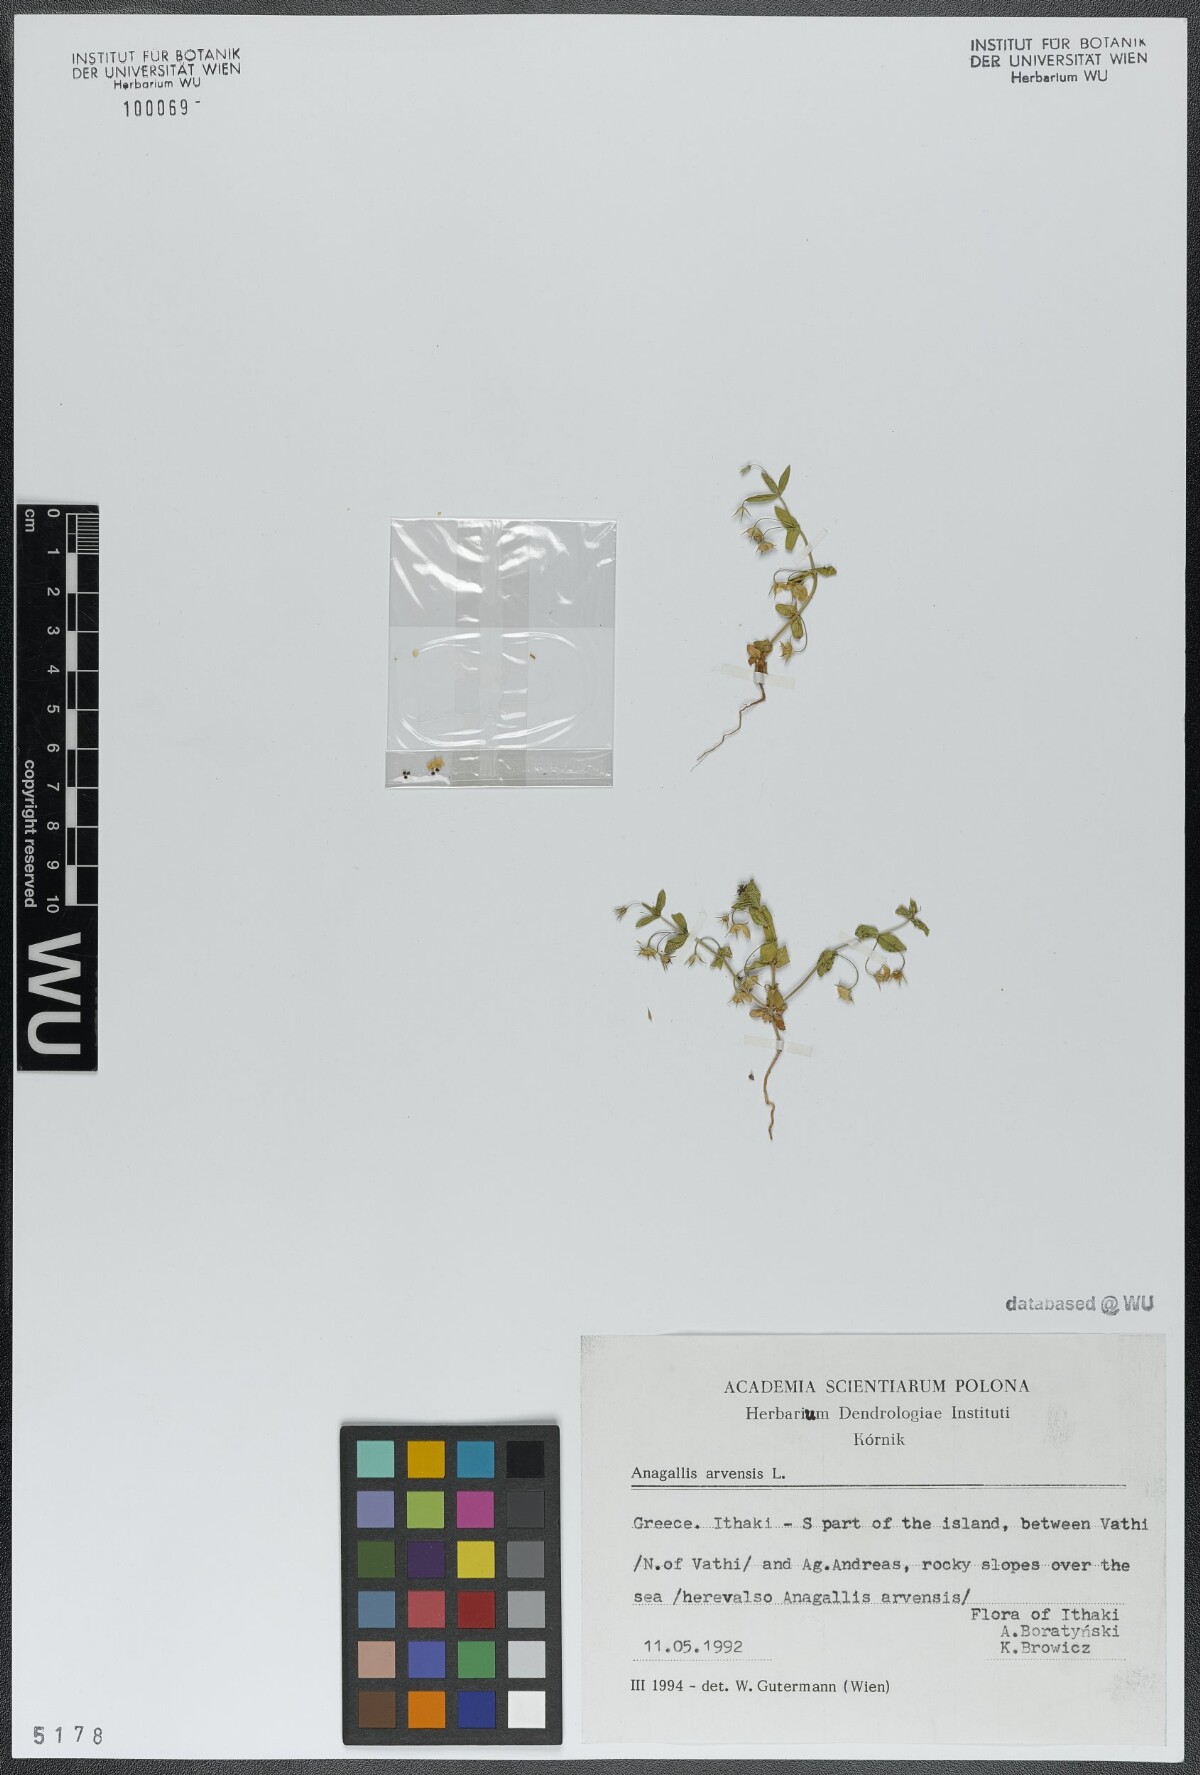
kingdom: Plantae
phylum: Tracheophyta
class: Magnoliopsida
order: Ericales
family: Primulaceae
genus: Lysimachia
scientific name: Lysimachia arvensis
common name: Scarlet pimpernel
